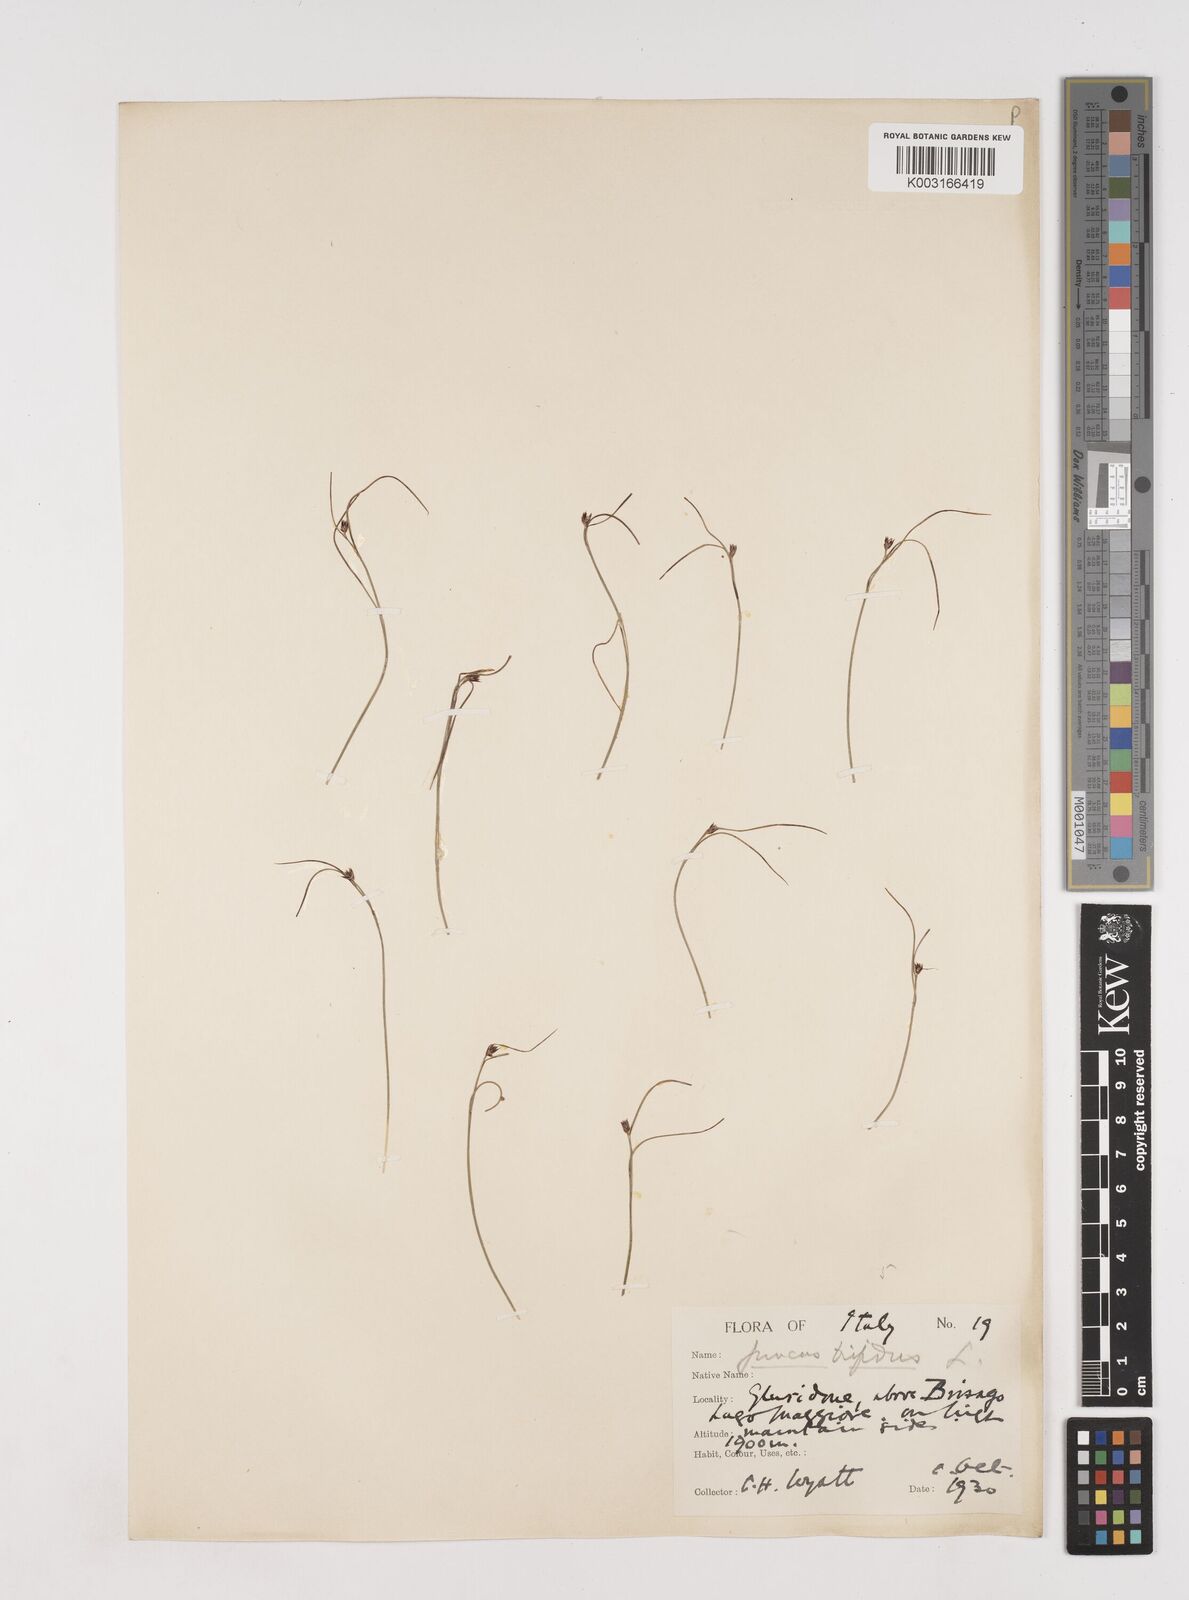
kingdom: Plantae
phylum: Tracheophyta
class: Liliopsida
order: Poales
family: Juncaceae
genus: Oreojuncus
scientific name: Oreojuncus trifidus
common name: Highland rush
